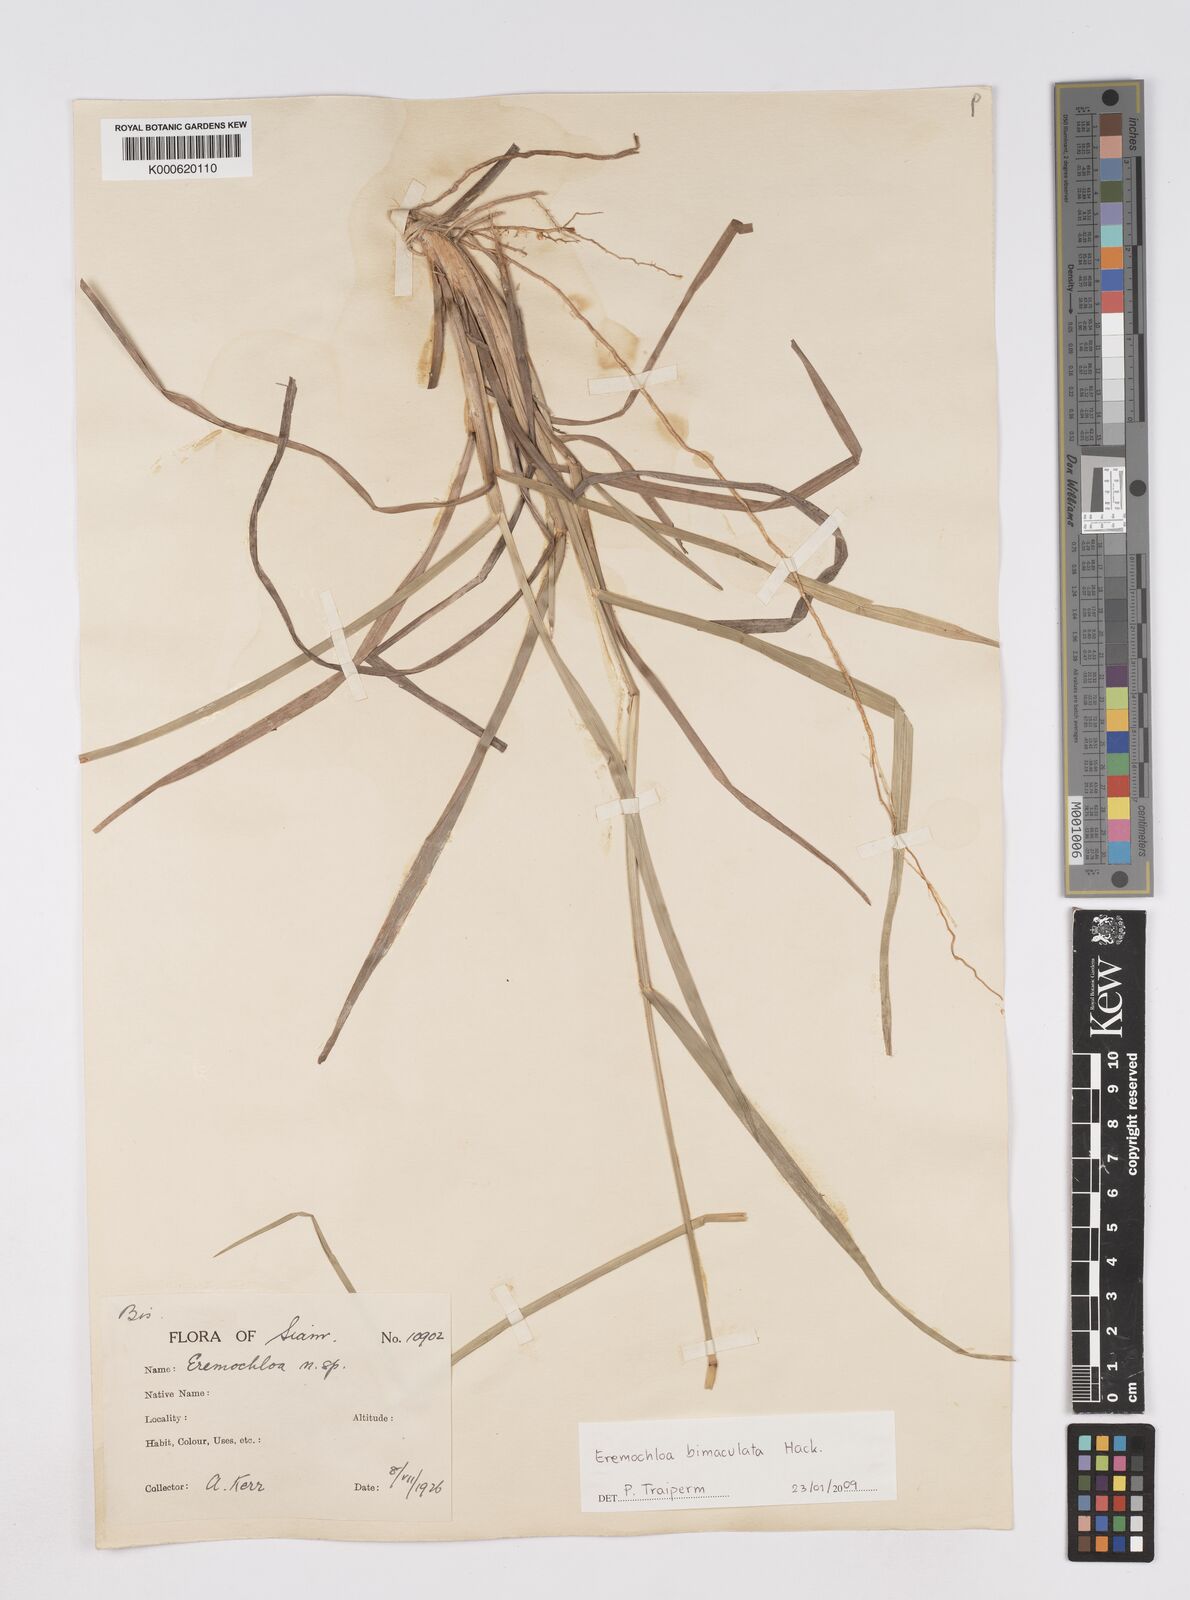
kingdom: Plantae
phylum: Tracheophyta
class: Liliopsida
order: Poales
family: Poaceae
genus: Eremochloa
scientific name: Eremochloa bimaculata
